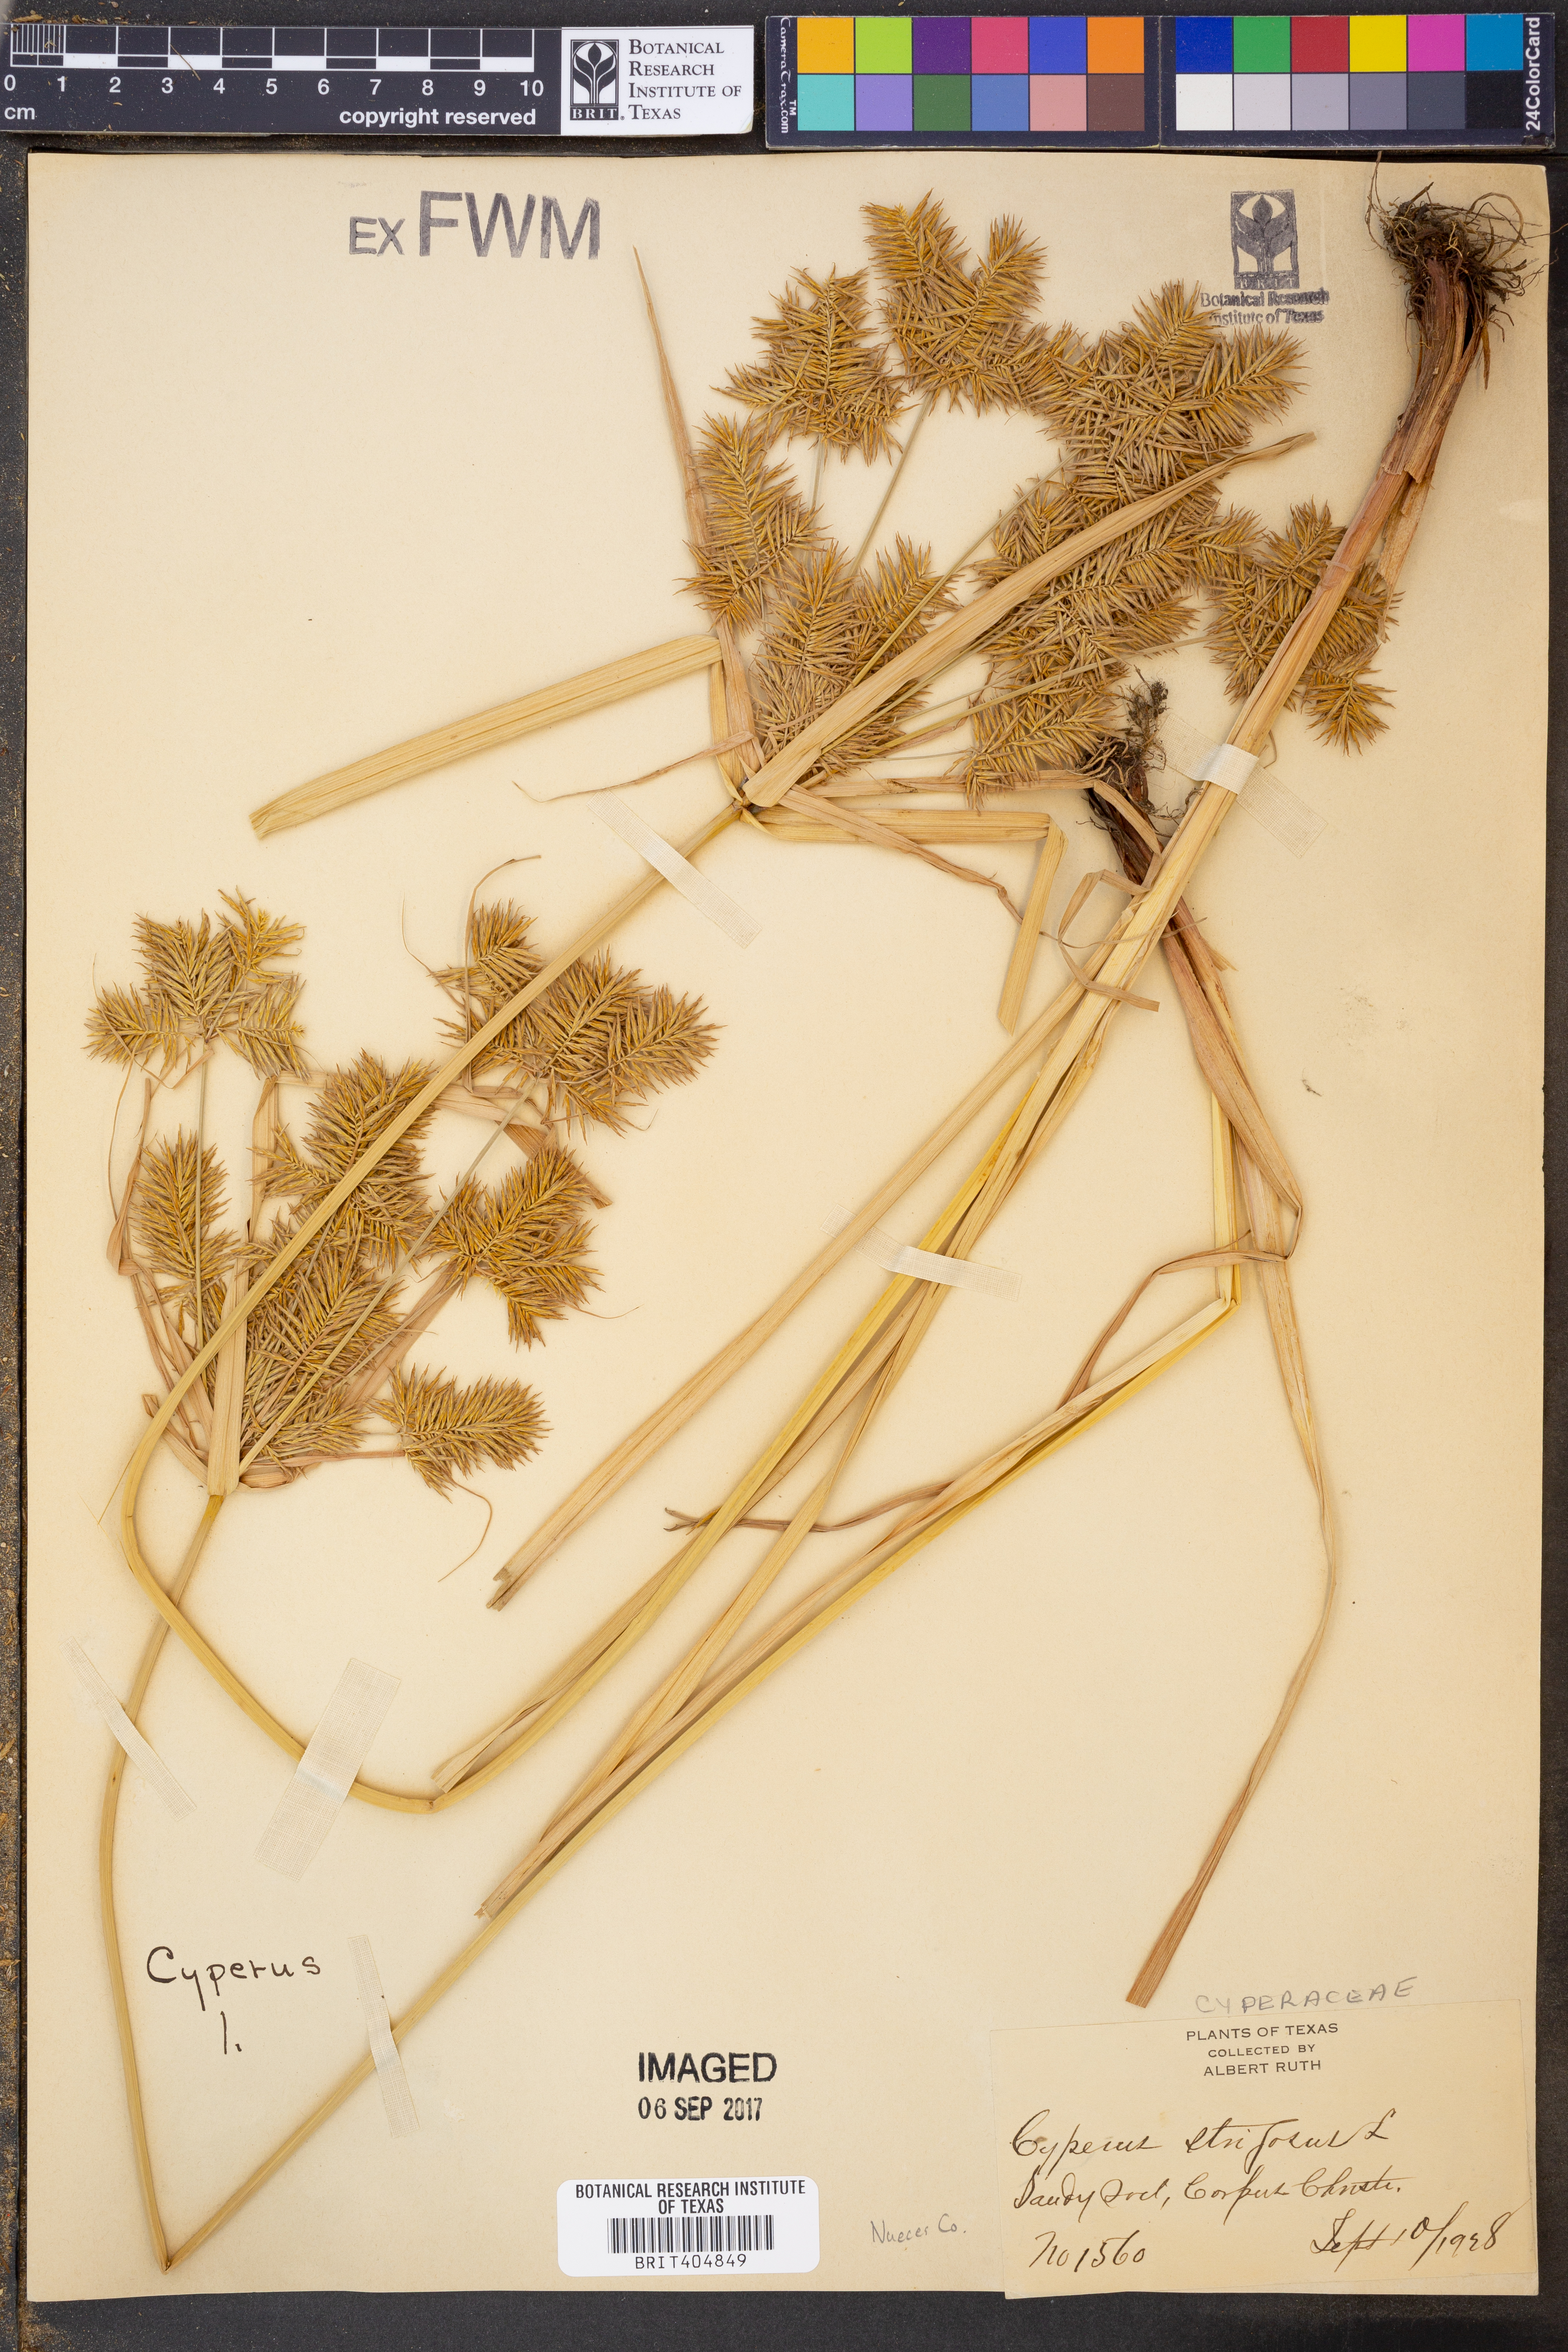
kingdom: Plantae
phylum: Tracheophyta
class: Liliopsida
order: Poales
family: Cyperaceae
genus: Cyperus
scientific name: Cyperus strigosus
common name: False nutsedge
